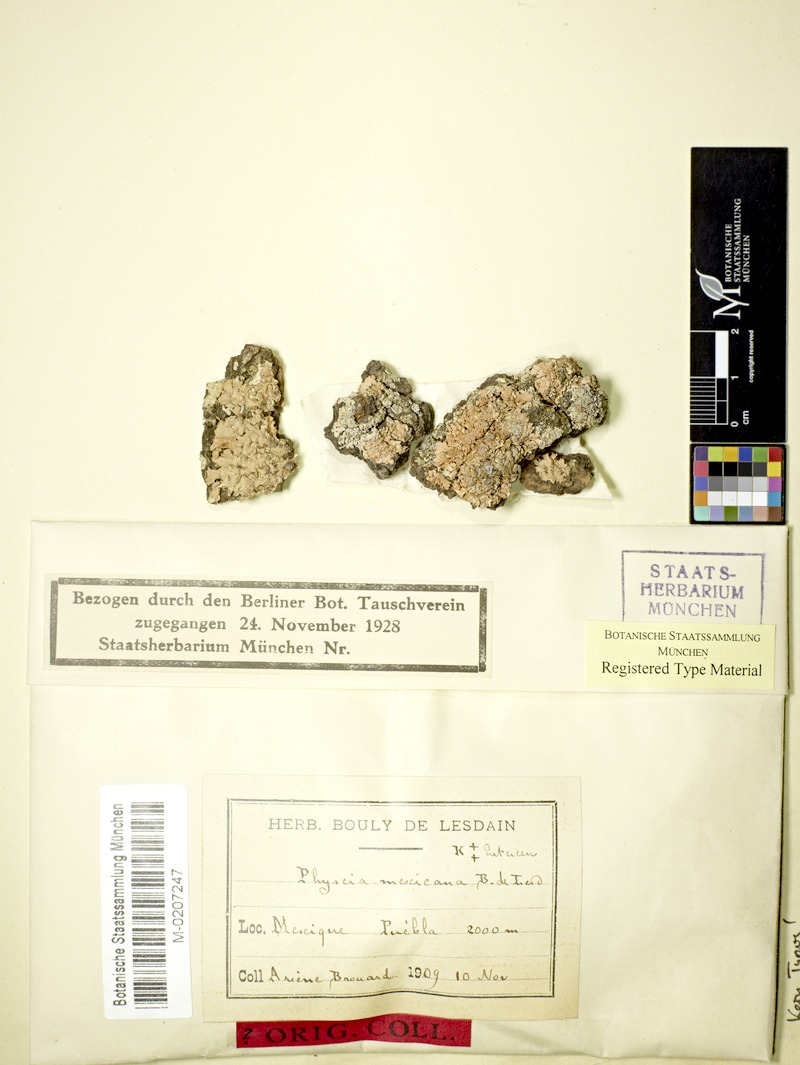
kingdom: Fungi
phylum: Ascomycota
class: Lecanoromycetes
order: Caliciales
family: Physciaceae
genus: Physcia
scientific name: Physcia mexicana
